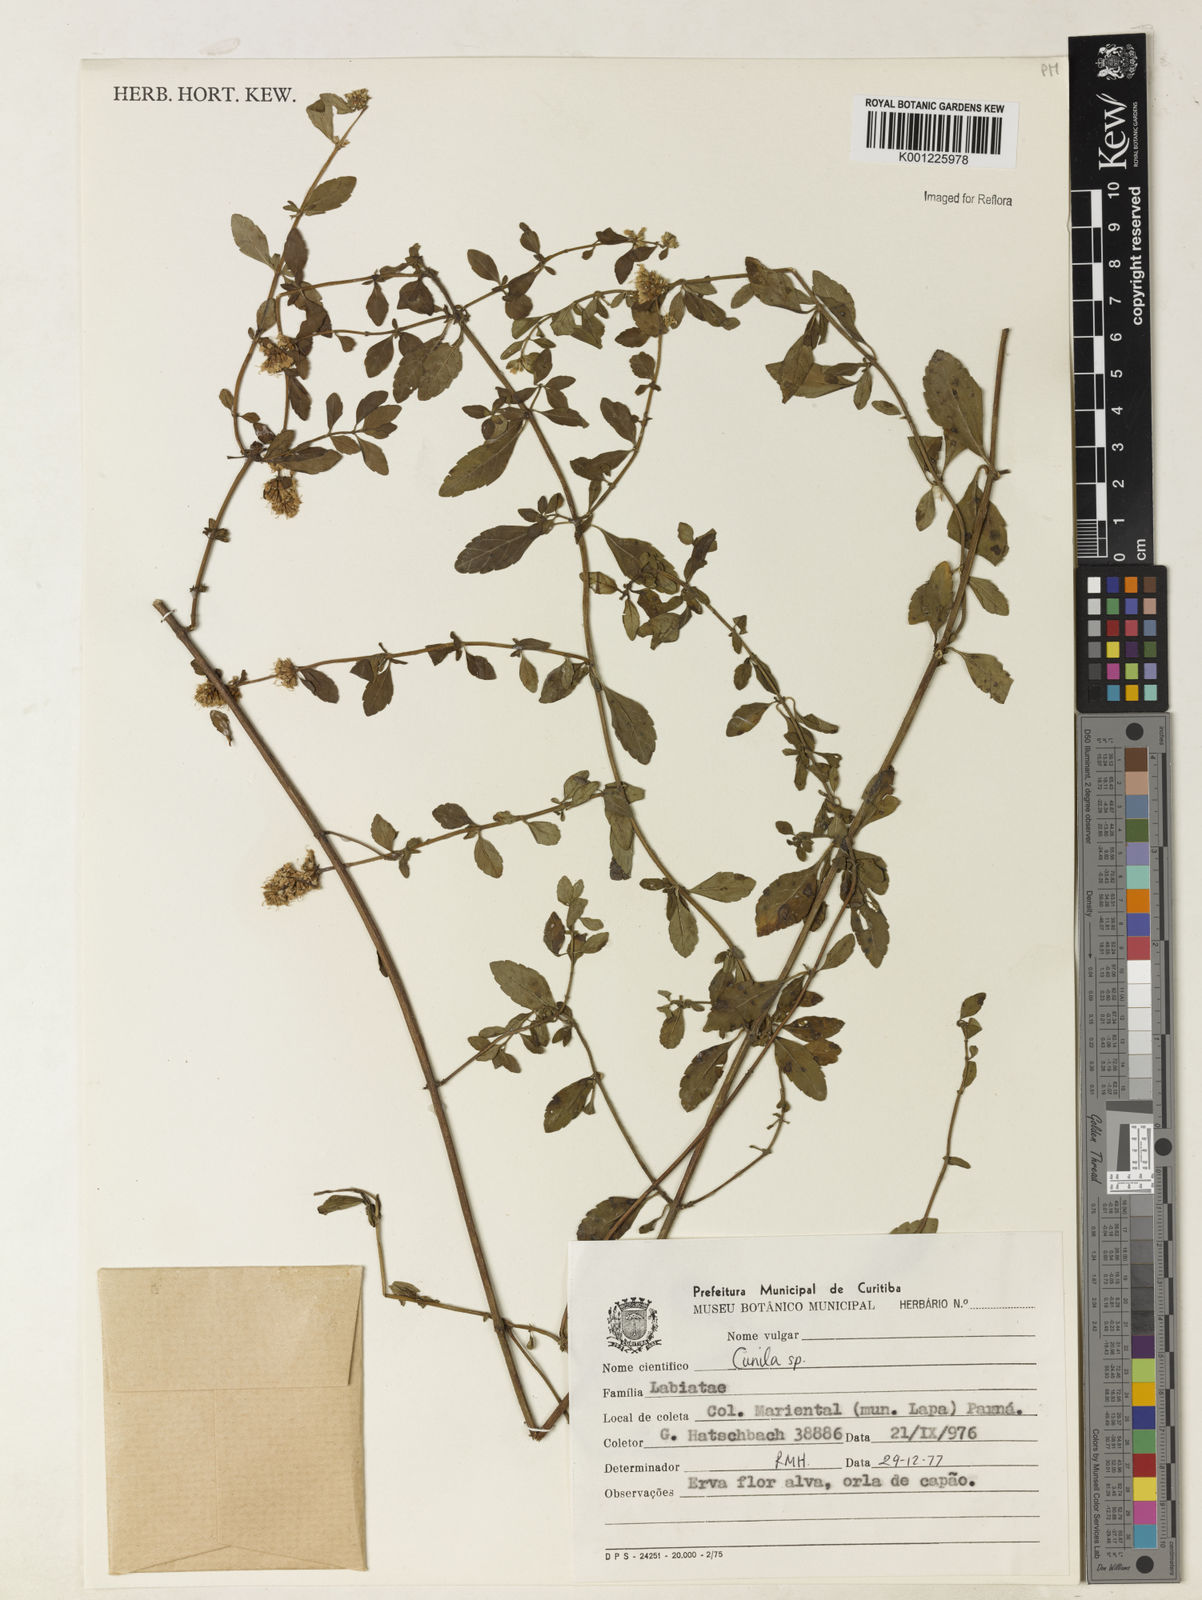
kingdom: Plantae
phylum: Tracheophyta
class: Magnoliopsida
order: Lamiales
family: Lamiaceae
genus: Cunila
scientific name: Cunila
